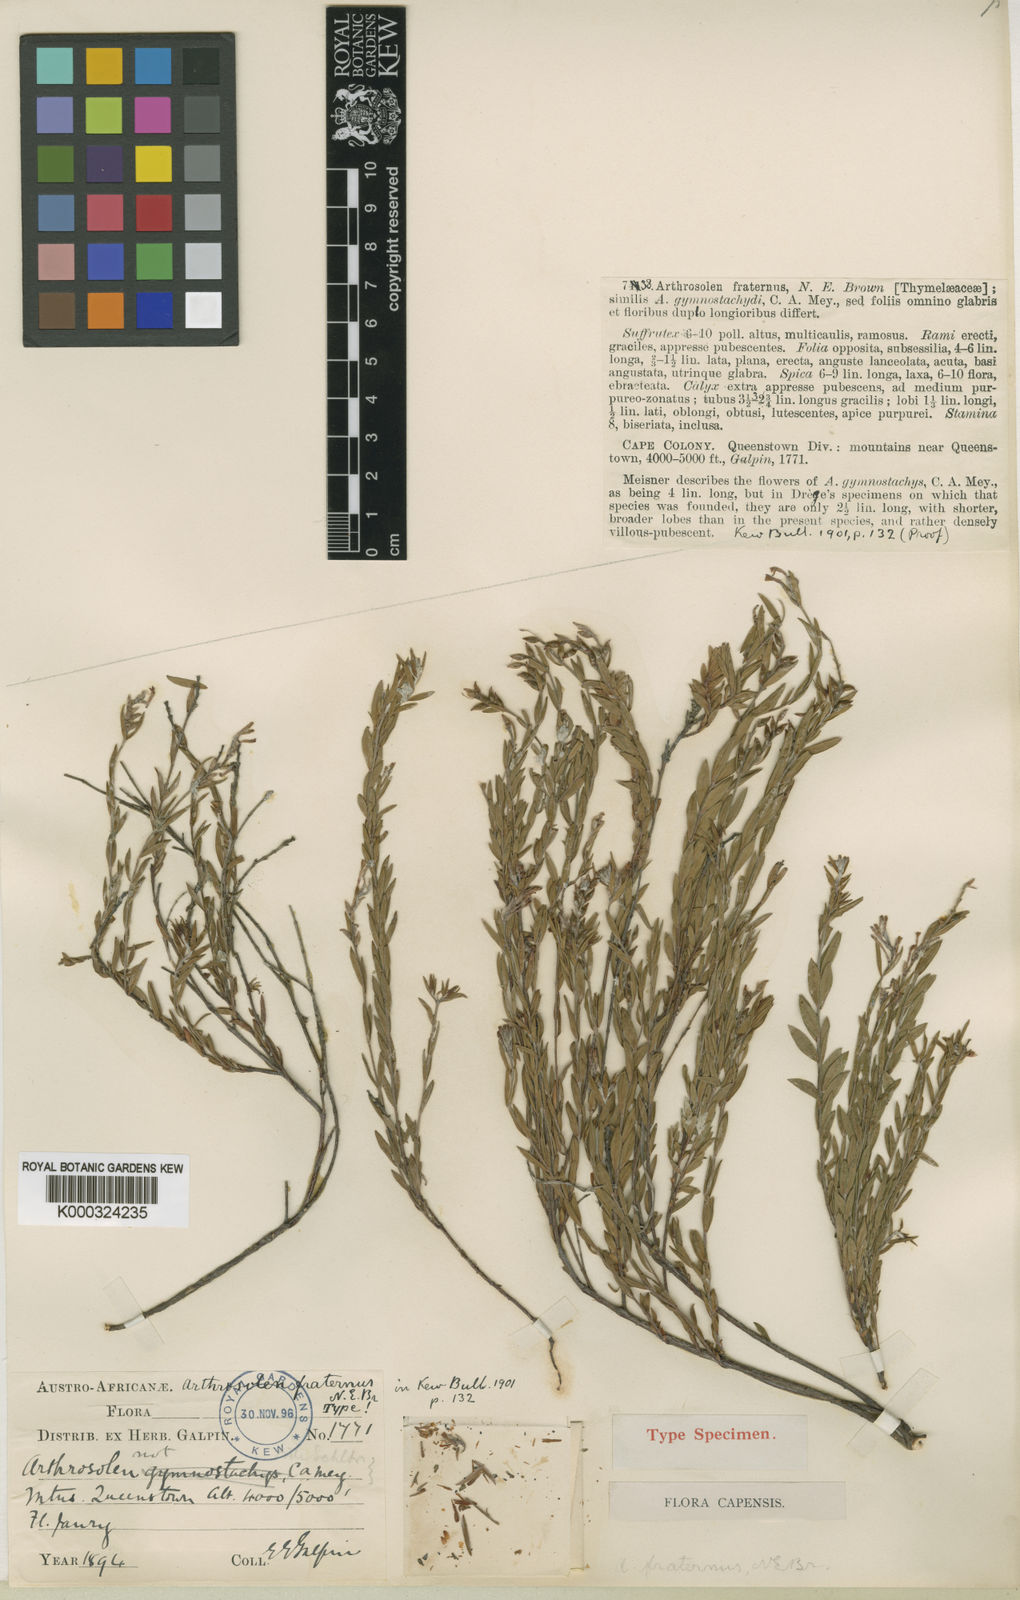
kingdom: Plantae
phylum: Tracheophyta
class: Magnoliopsida
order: Malvales
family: Thymelaeaceae
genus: Gnidia
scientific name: Gnidia fraterna
